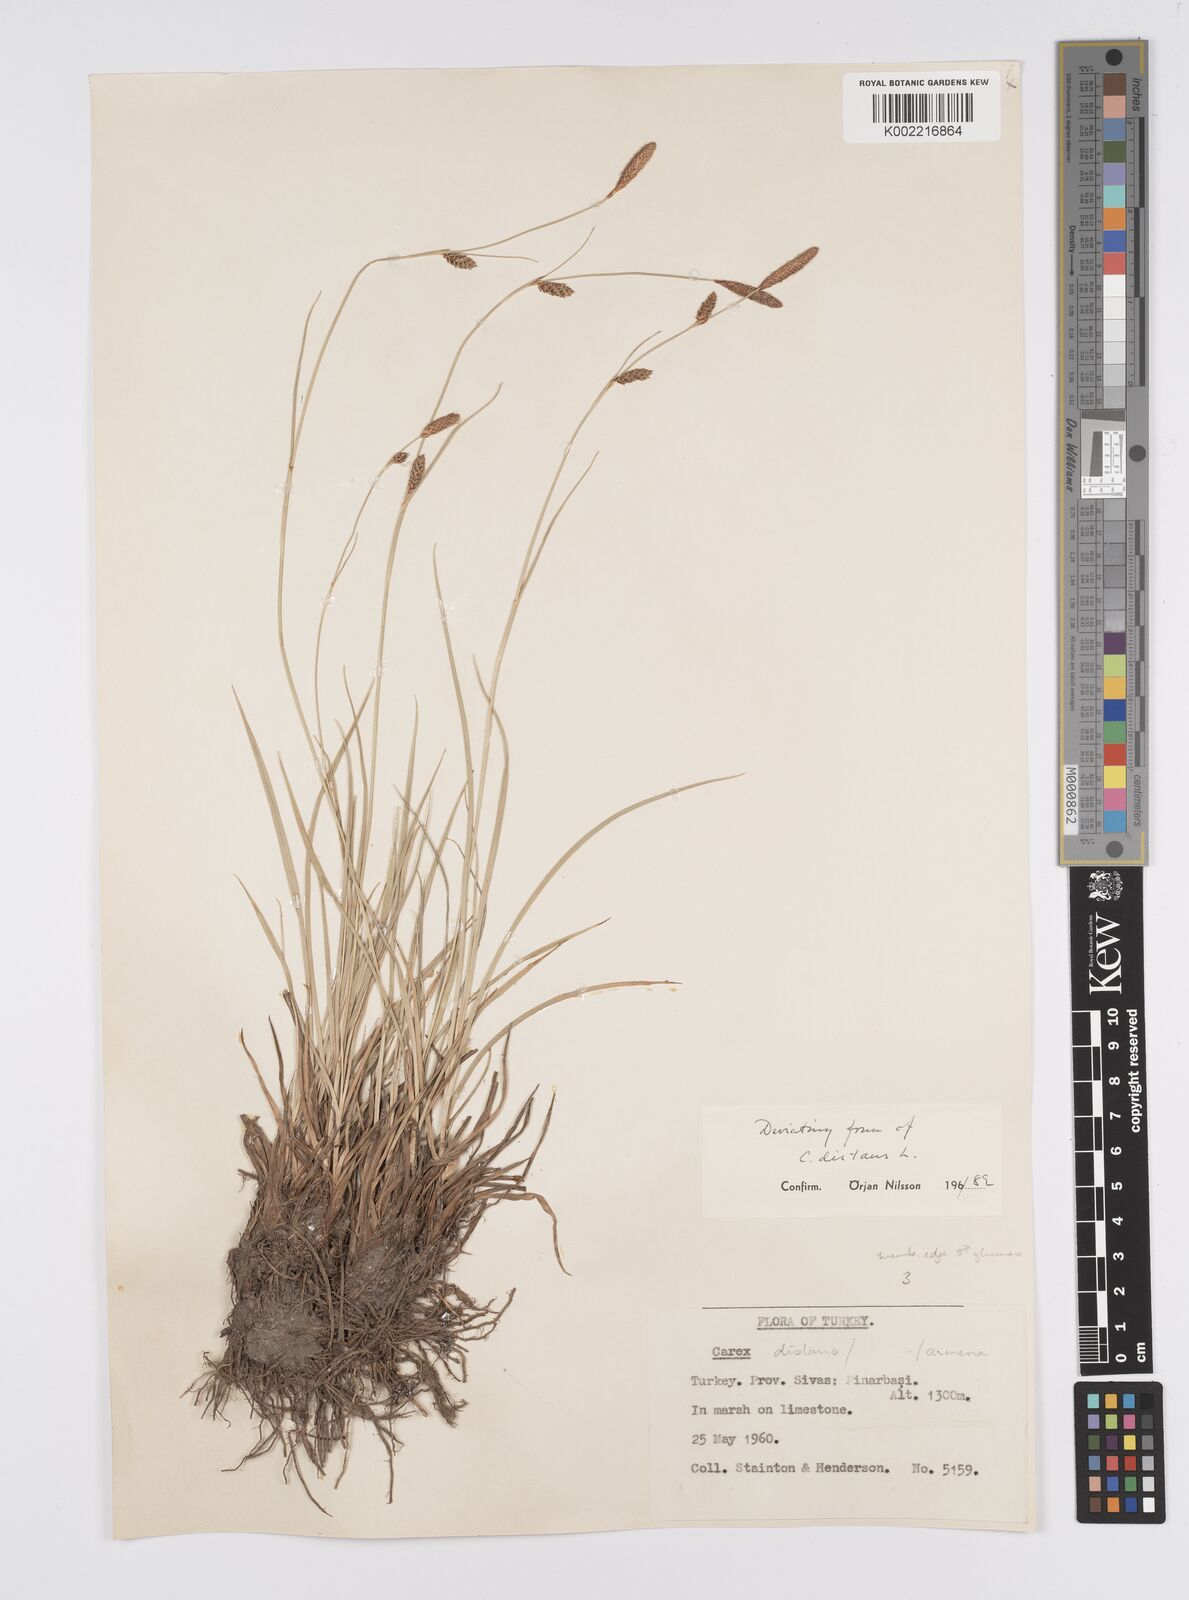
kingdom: Plantae
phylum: Tracheophyta
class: Liliopsida
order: Poales
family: Cyperaceae
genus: Carex
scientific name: Carex distans
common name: Distant sedge
